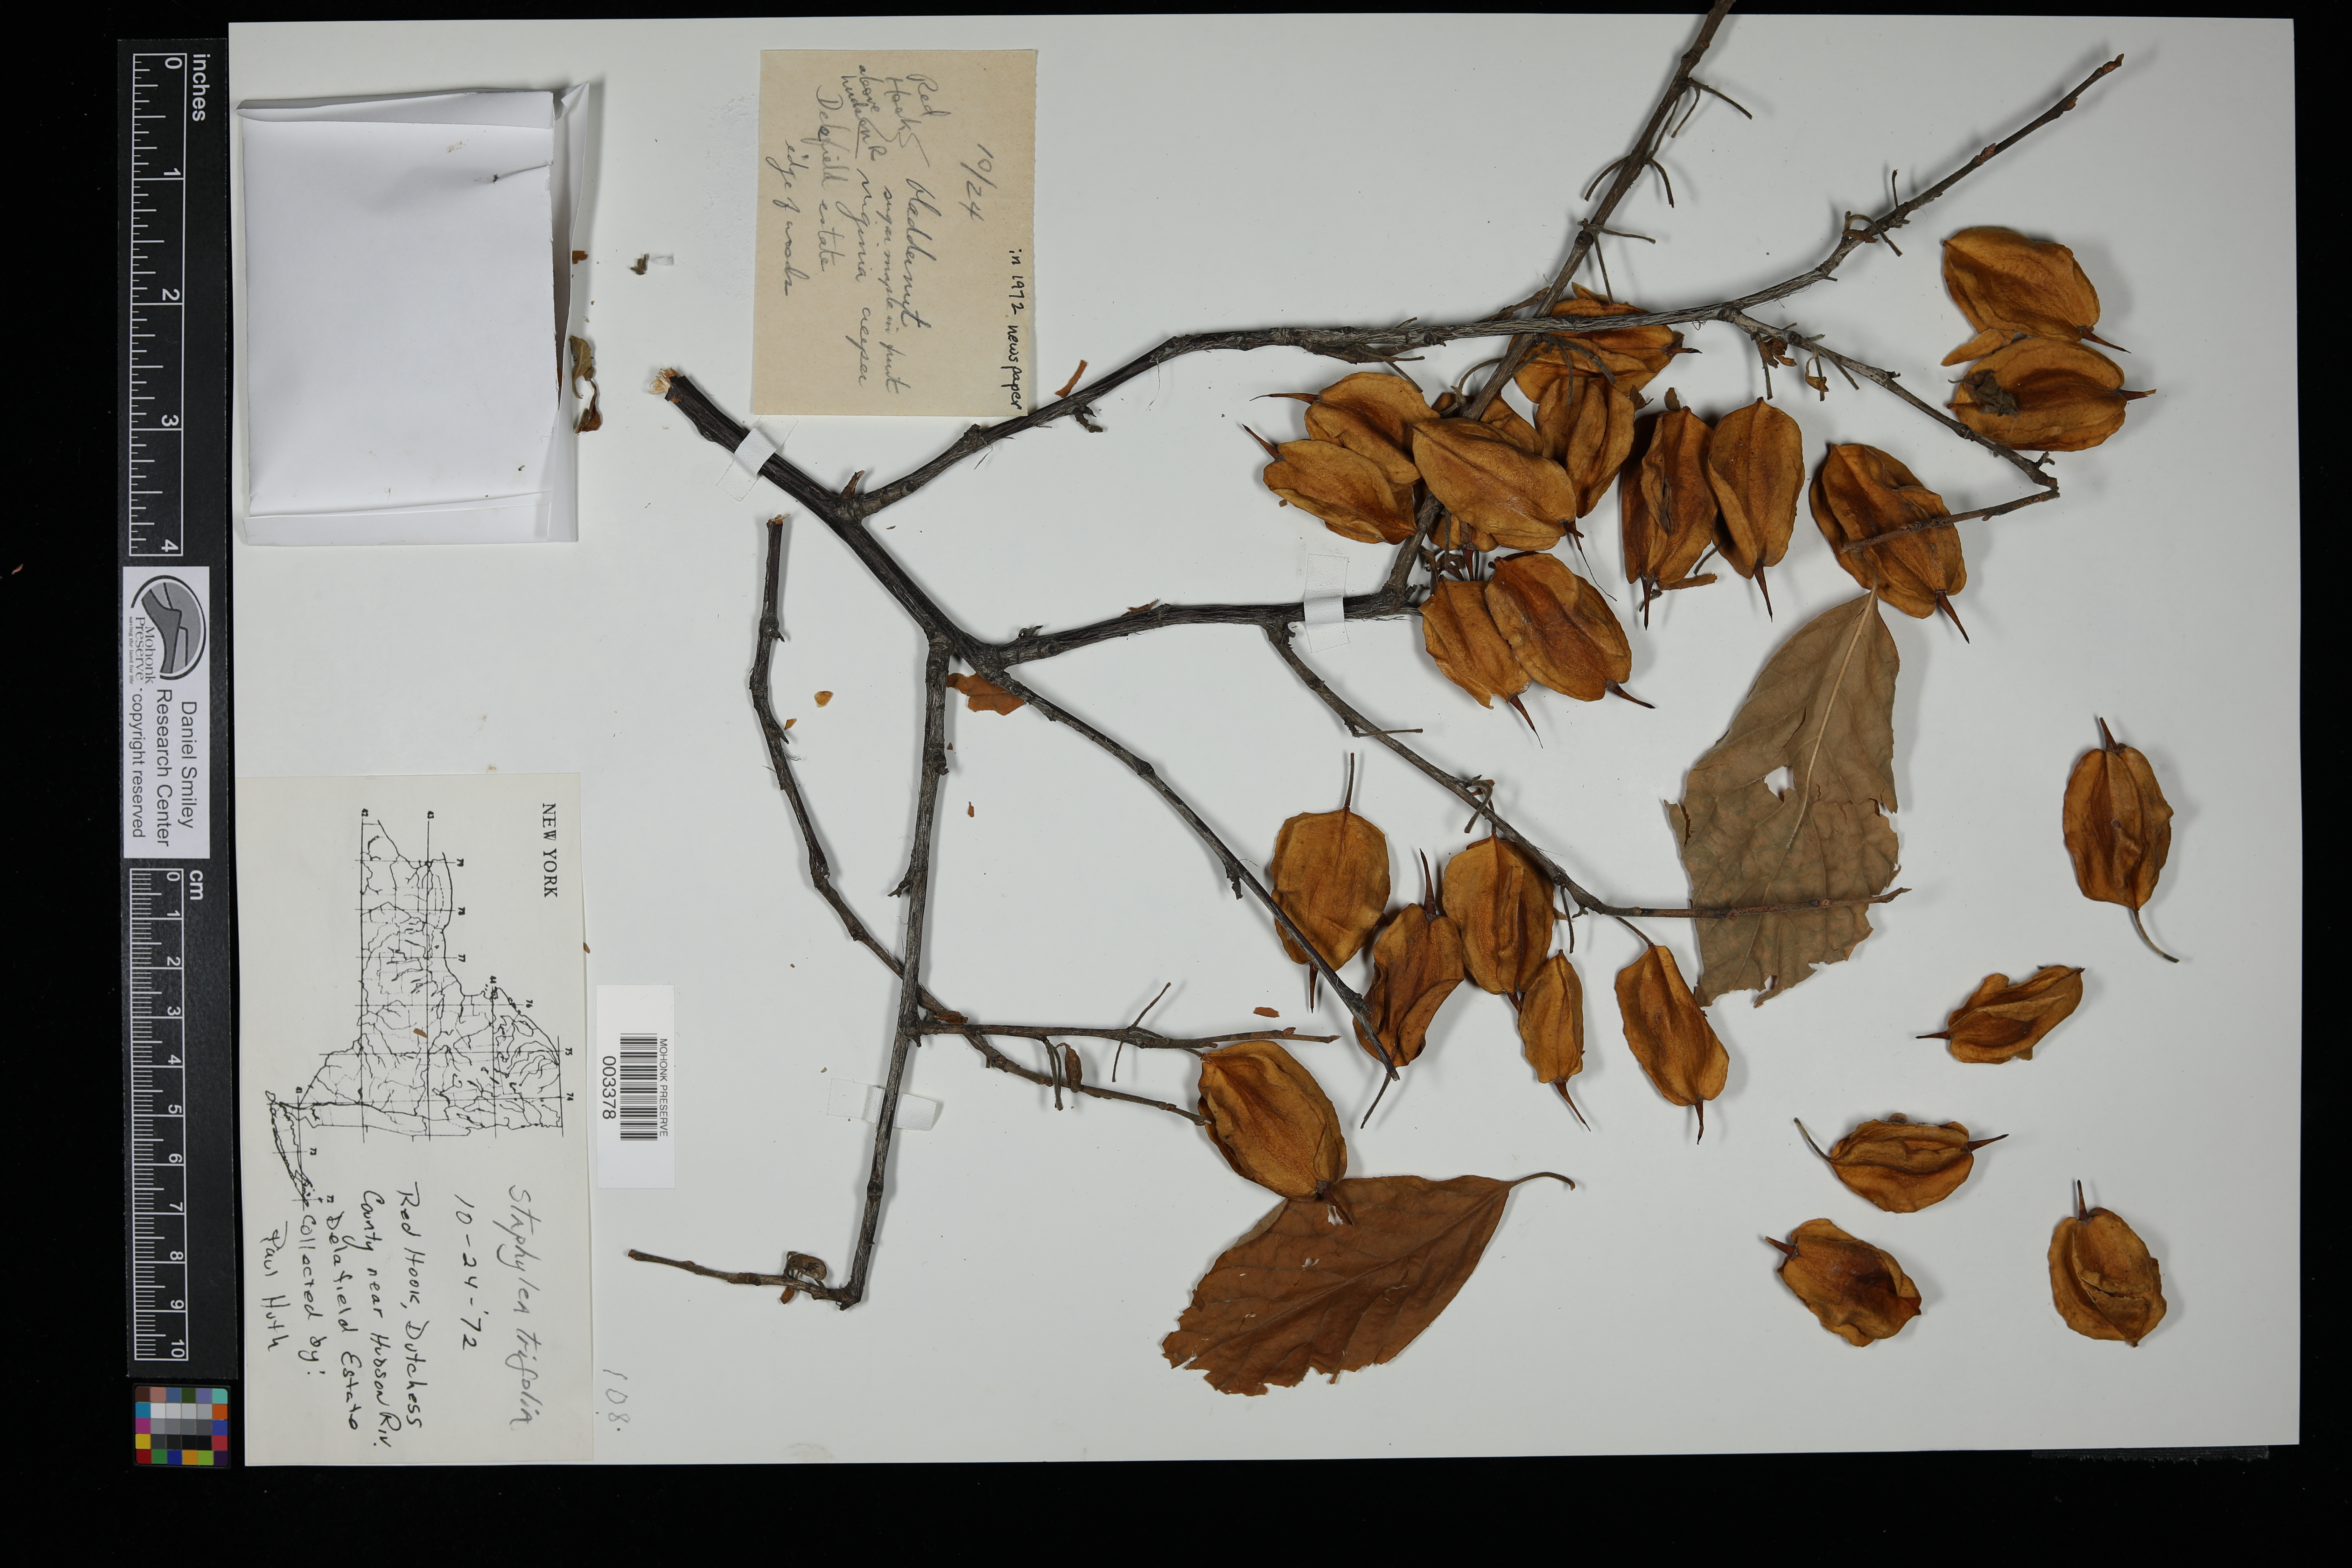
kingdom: Plantae
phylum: Tracheophyta
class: Magnoliopsida
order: Crossosomatales
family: Staphyleaceae
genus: Staphylea
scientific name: Staphylea trifolia
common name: American bladdernut
